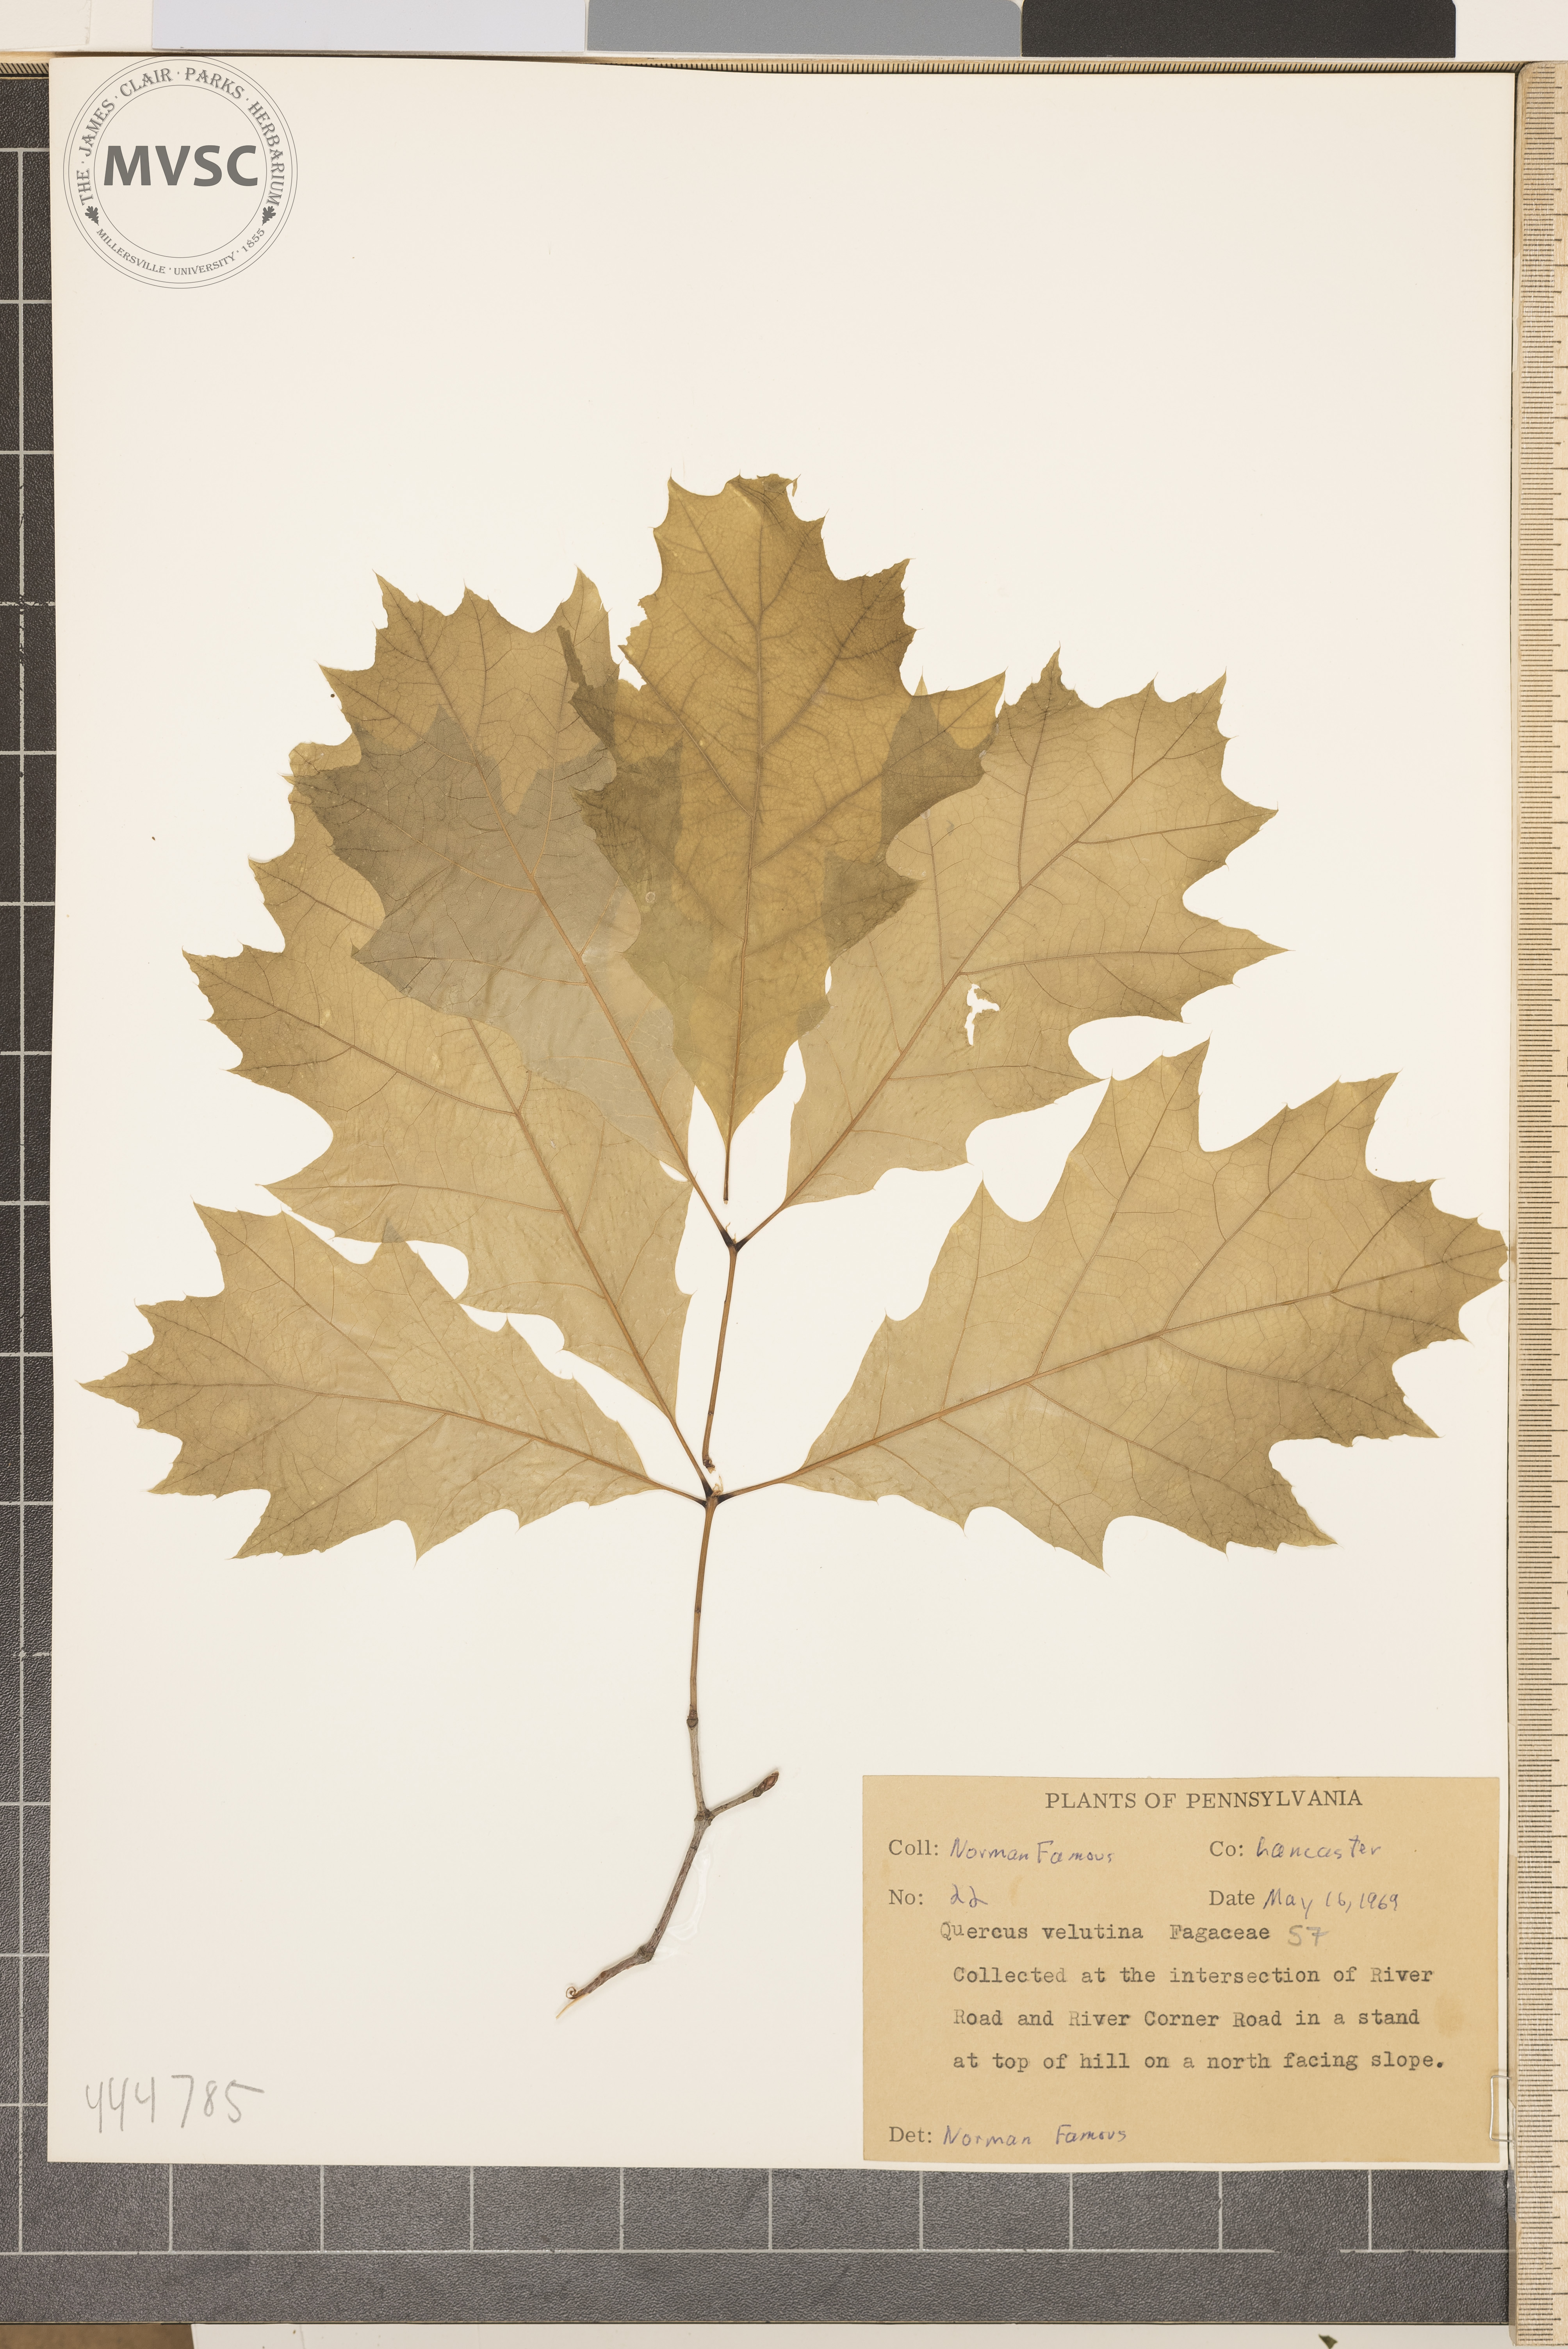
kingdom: Plantae
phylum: Tracheophyta
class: Magnoliopsida
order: Fagales
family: Fagaceae
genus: Quercus
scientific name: Quercus velutina
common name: Black oak
